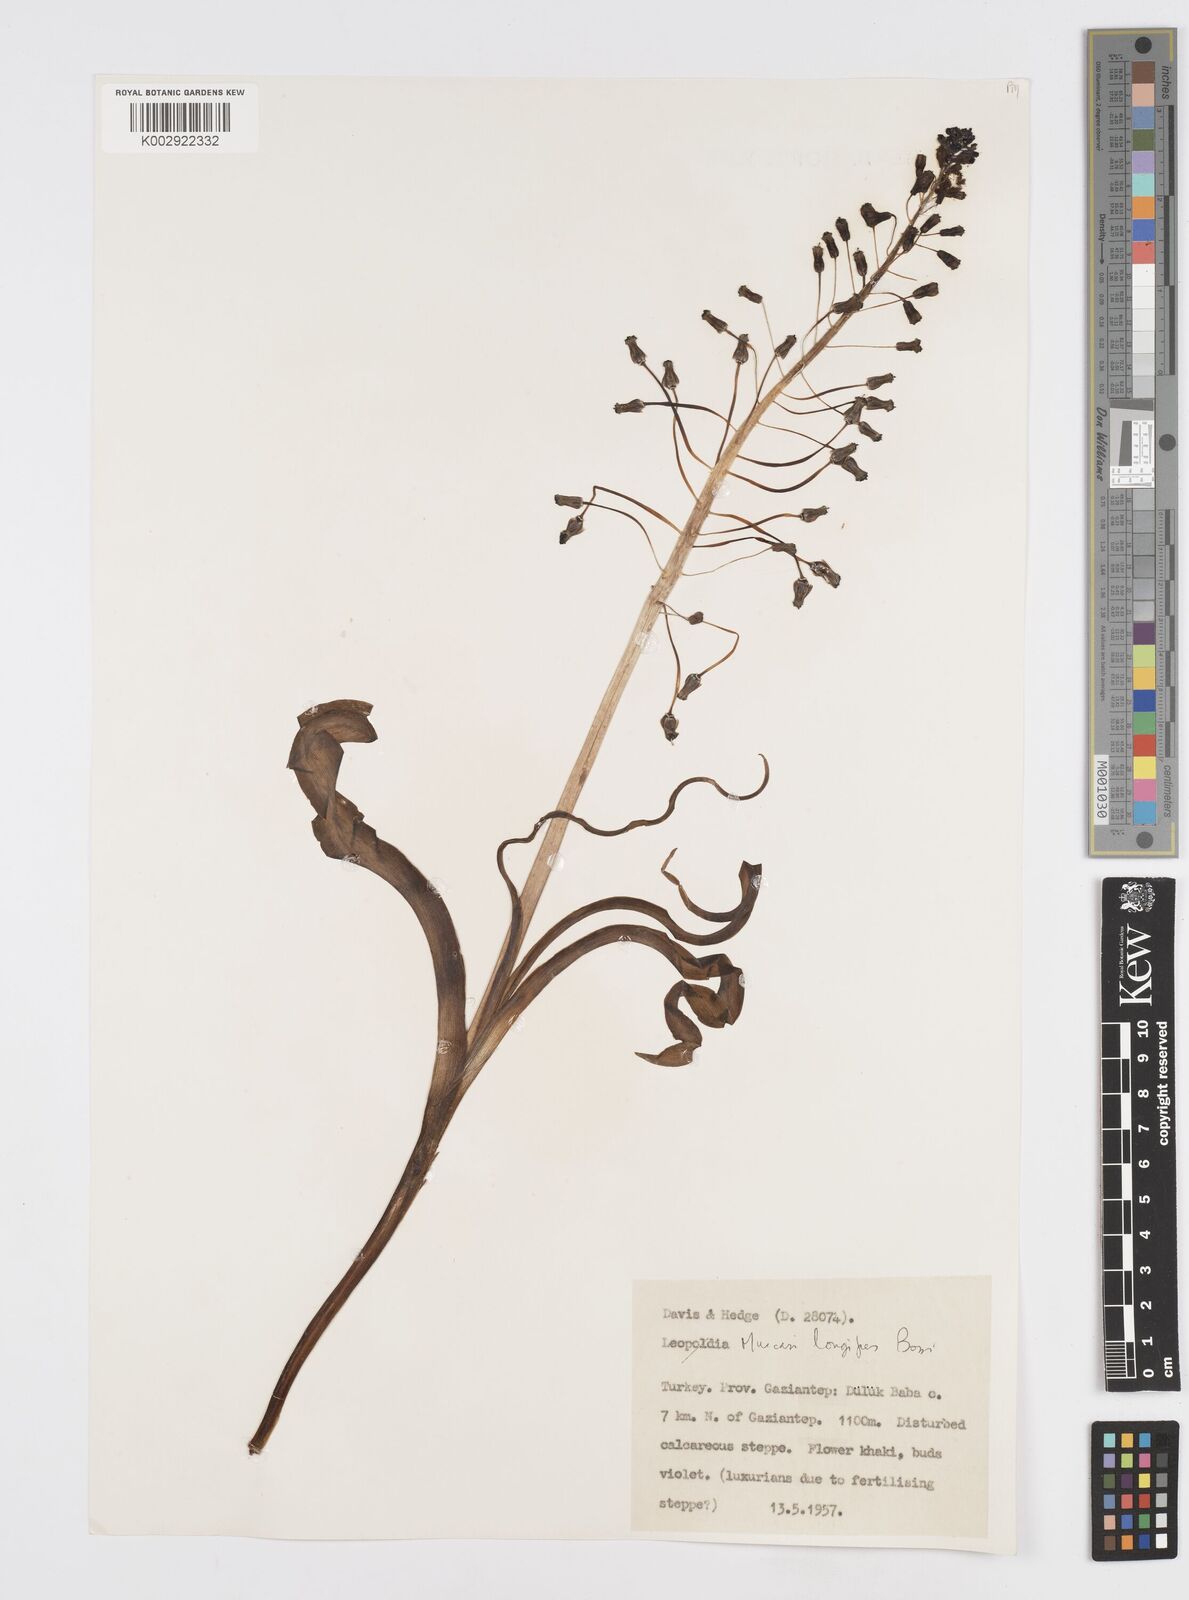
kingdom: Plantae
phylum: Tracheophyta
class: Liliopsida
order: Asparagales
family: Asparagaceae
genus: Muscari
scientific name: Muscari longipes
